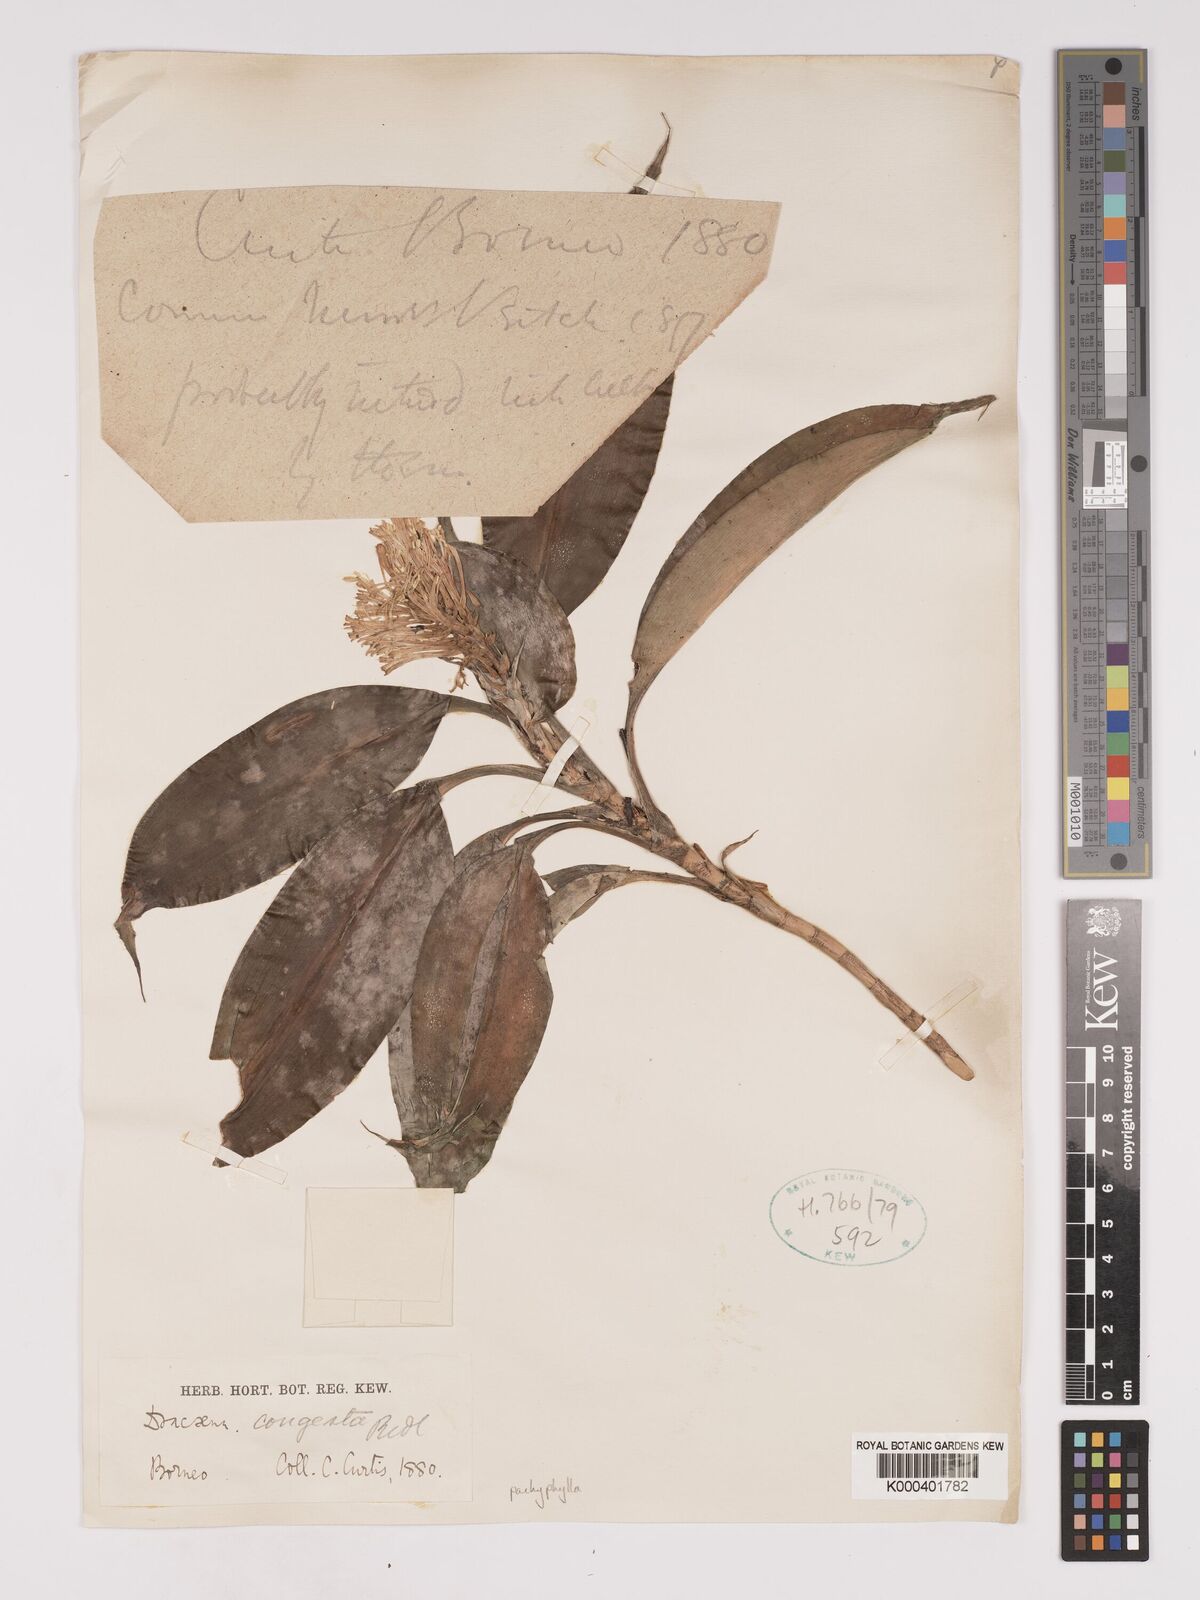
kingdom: Plantae
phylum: Tracheophyta
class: Liliopsida
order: Asparagales
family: Asparagaceae
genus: Dracaena
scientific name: Dracaena pachyphylla
